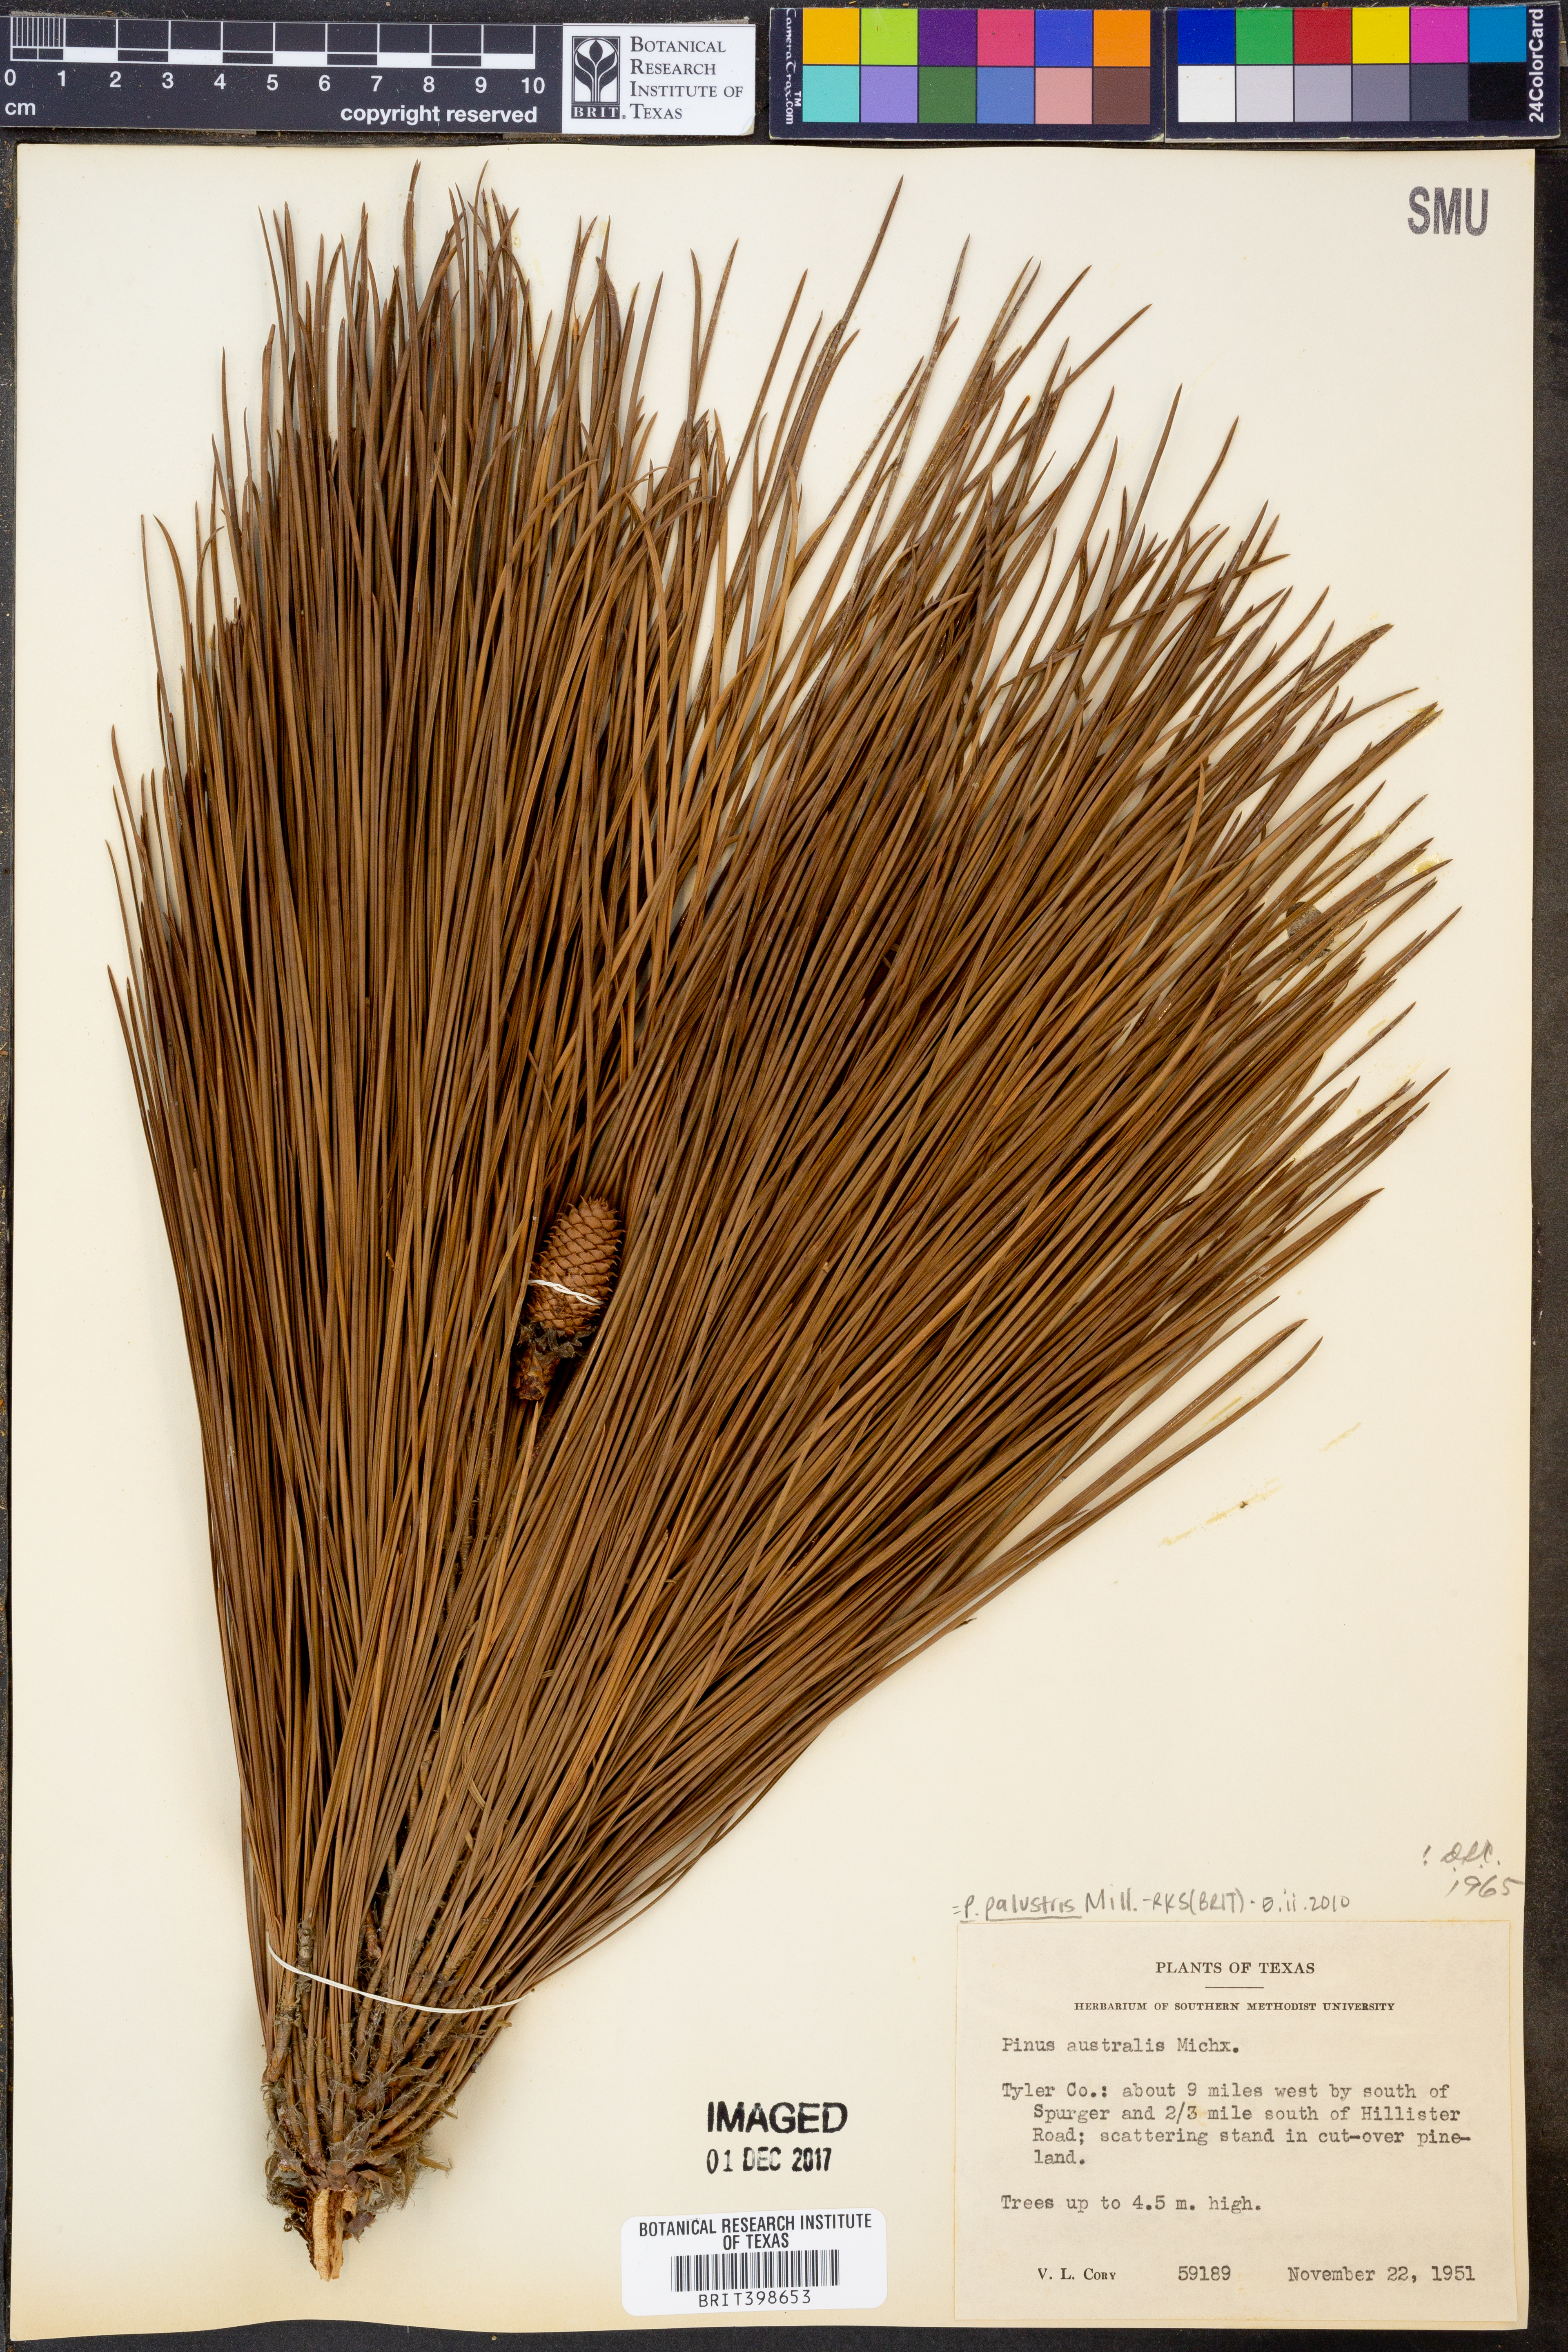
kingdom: Plantae
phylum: Tracheophyta
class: Pinopsida
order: Pinales
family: Pinaceae
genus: Pinus
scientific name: Pinus palustris
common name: Longleaf pine
